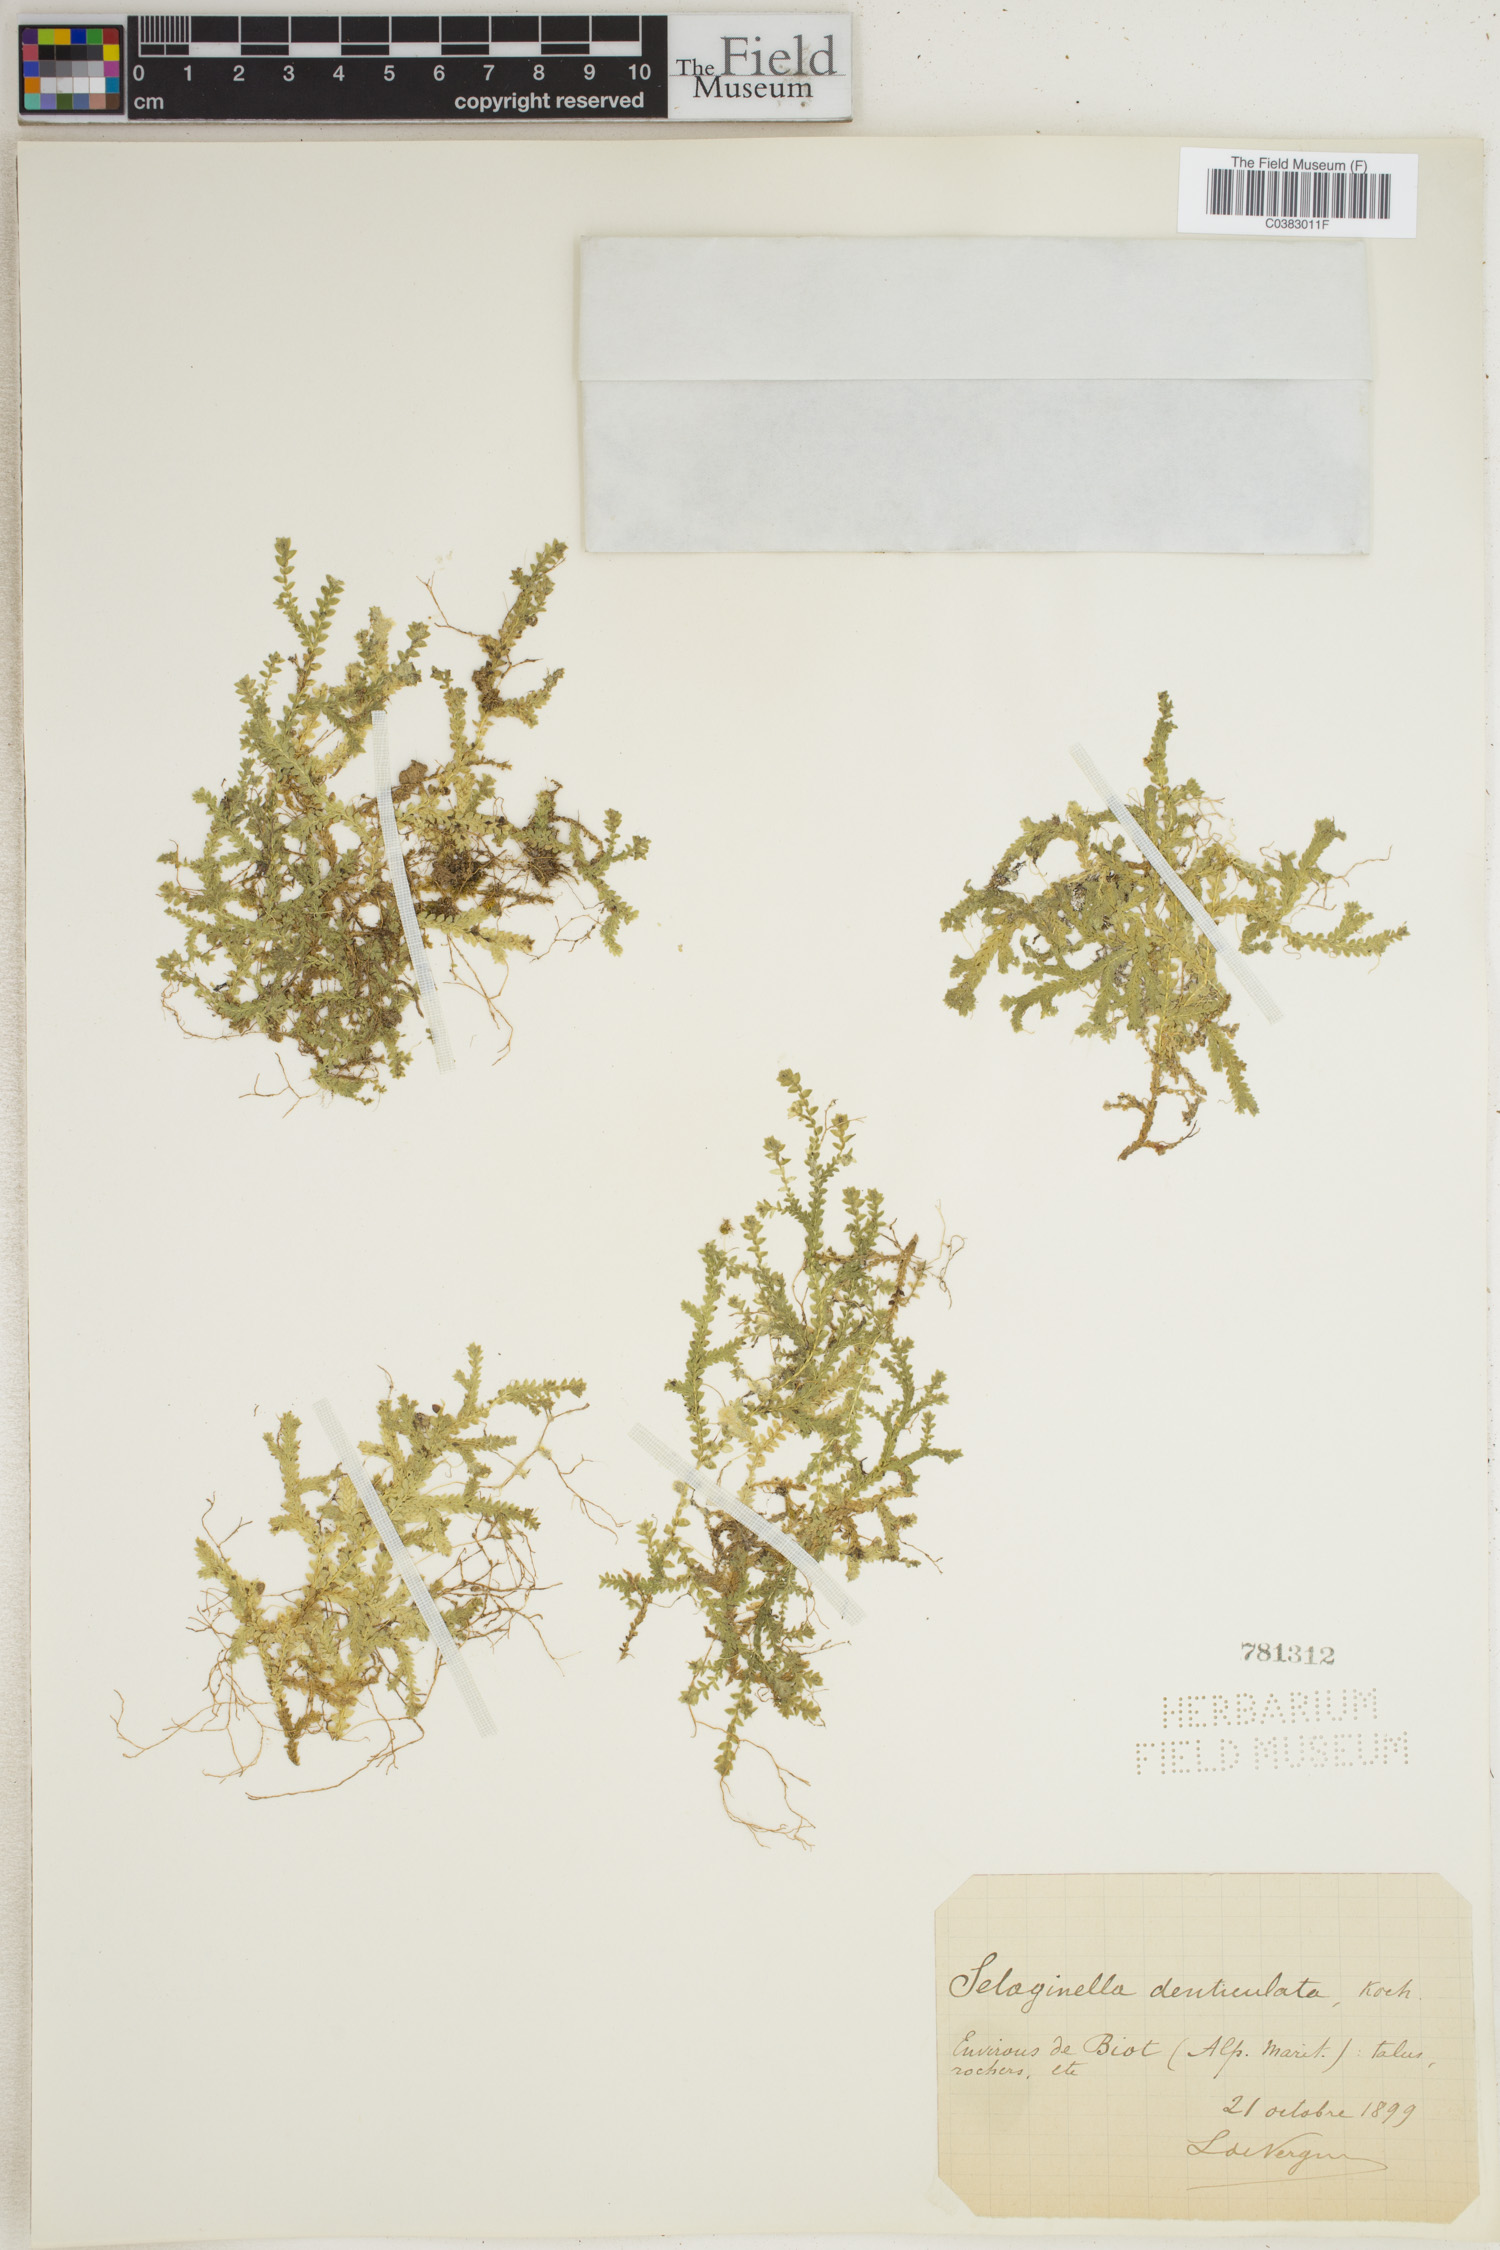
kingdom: Plantae
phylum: Tracheophyta
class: Lycopodiopsida
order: Selaginellales
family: Selaginellaceae
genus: Selaginella
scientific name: Selaginella denticulata
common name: Toothed-leaved clubmoss
